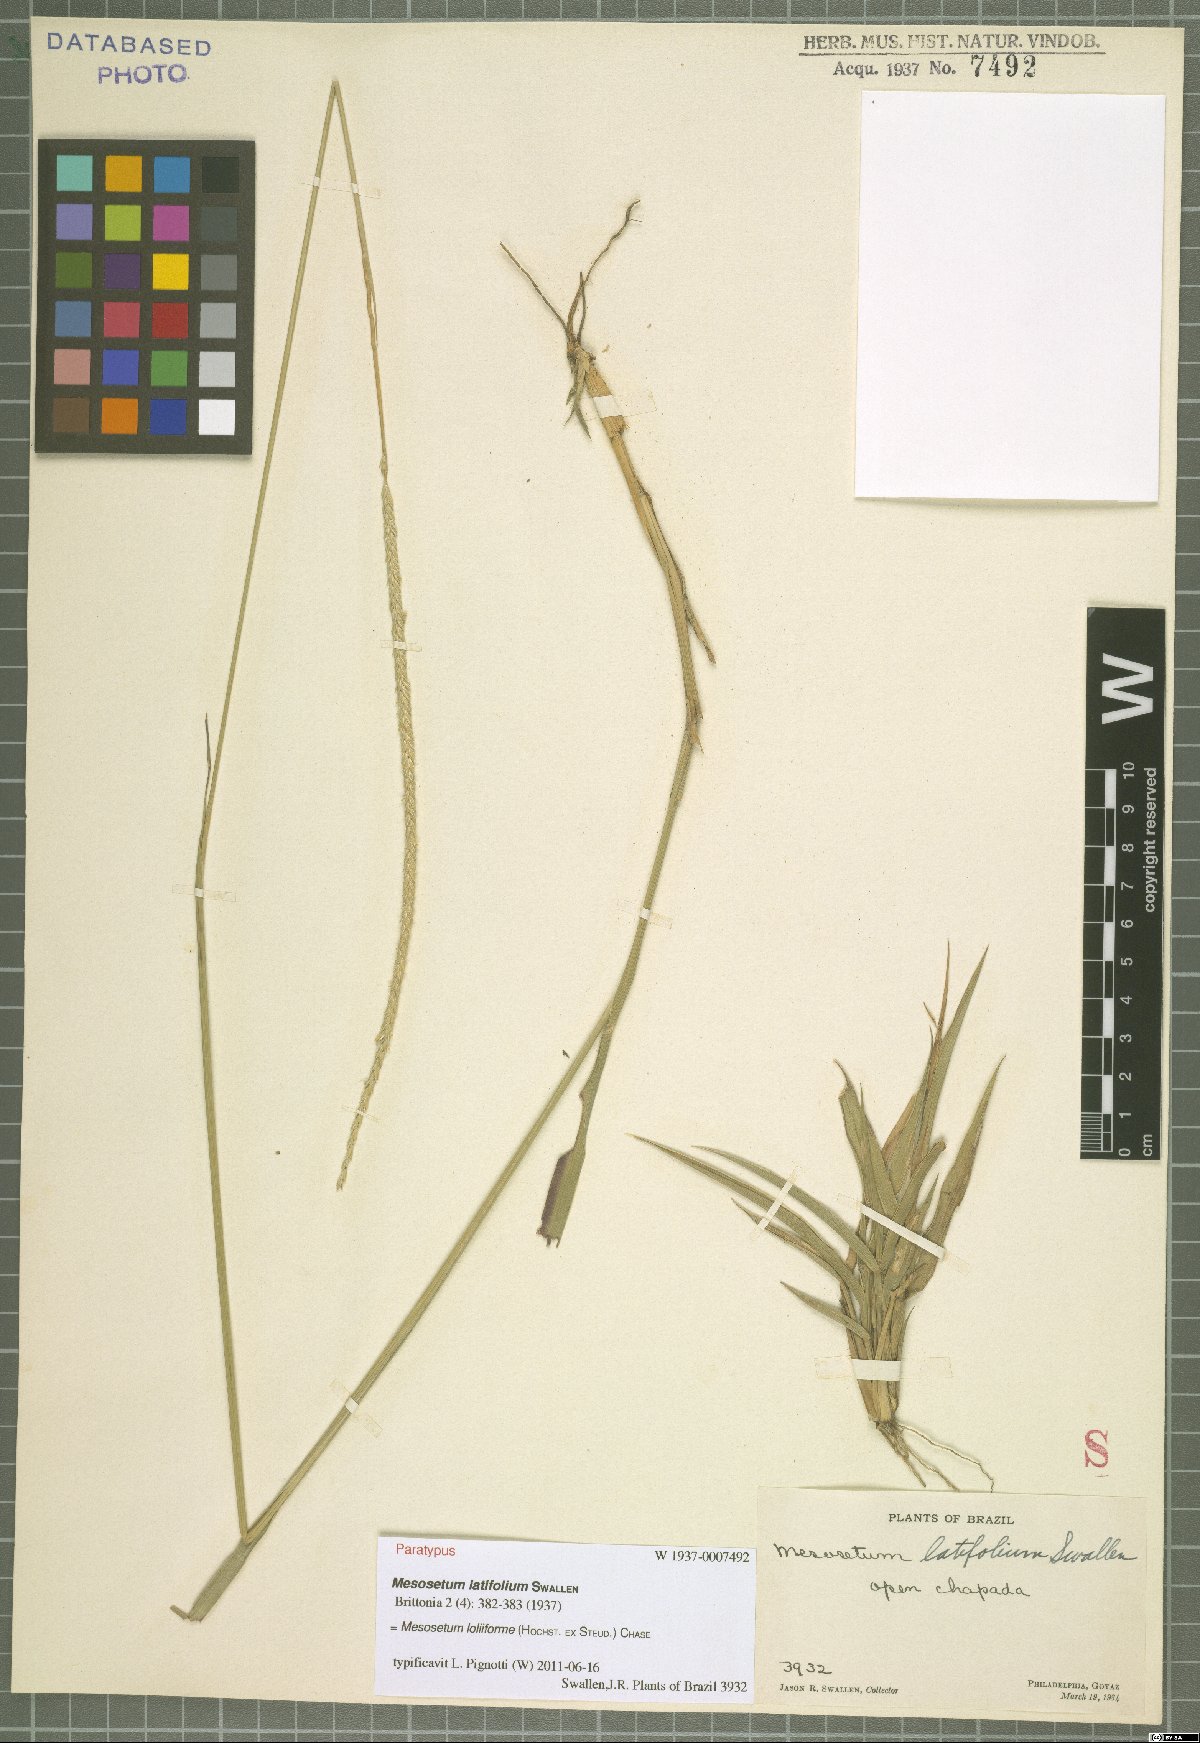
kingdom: Plantae
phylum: Tracheophyta
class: Liliopsida
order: Poales
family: Poaceae
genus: Mesosetum
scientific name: Mesosetum loliiforme
